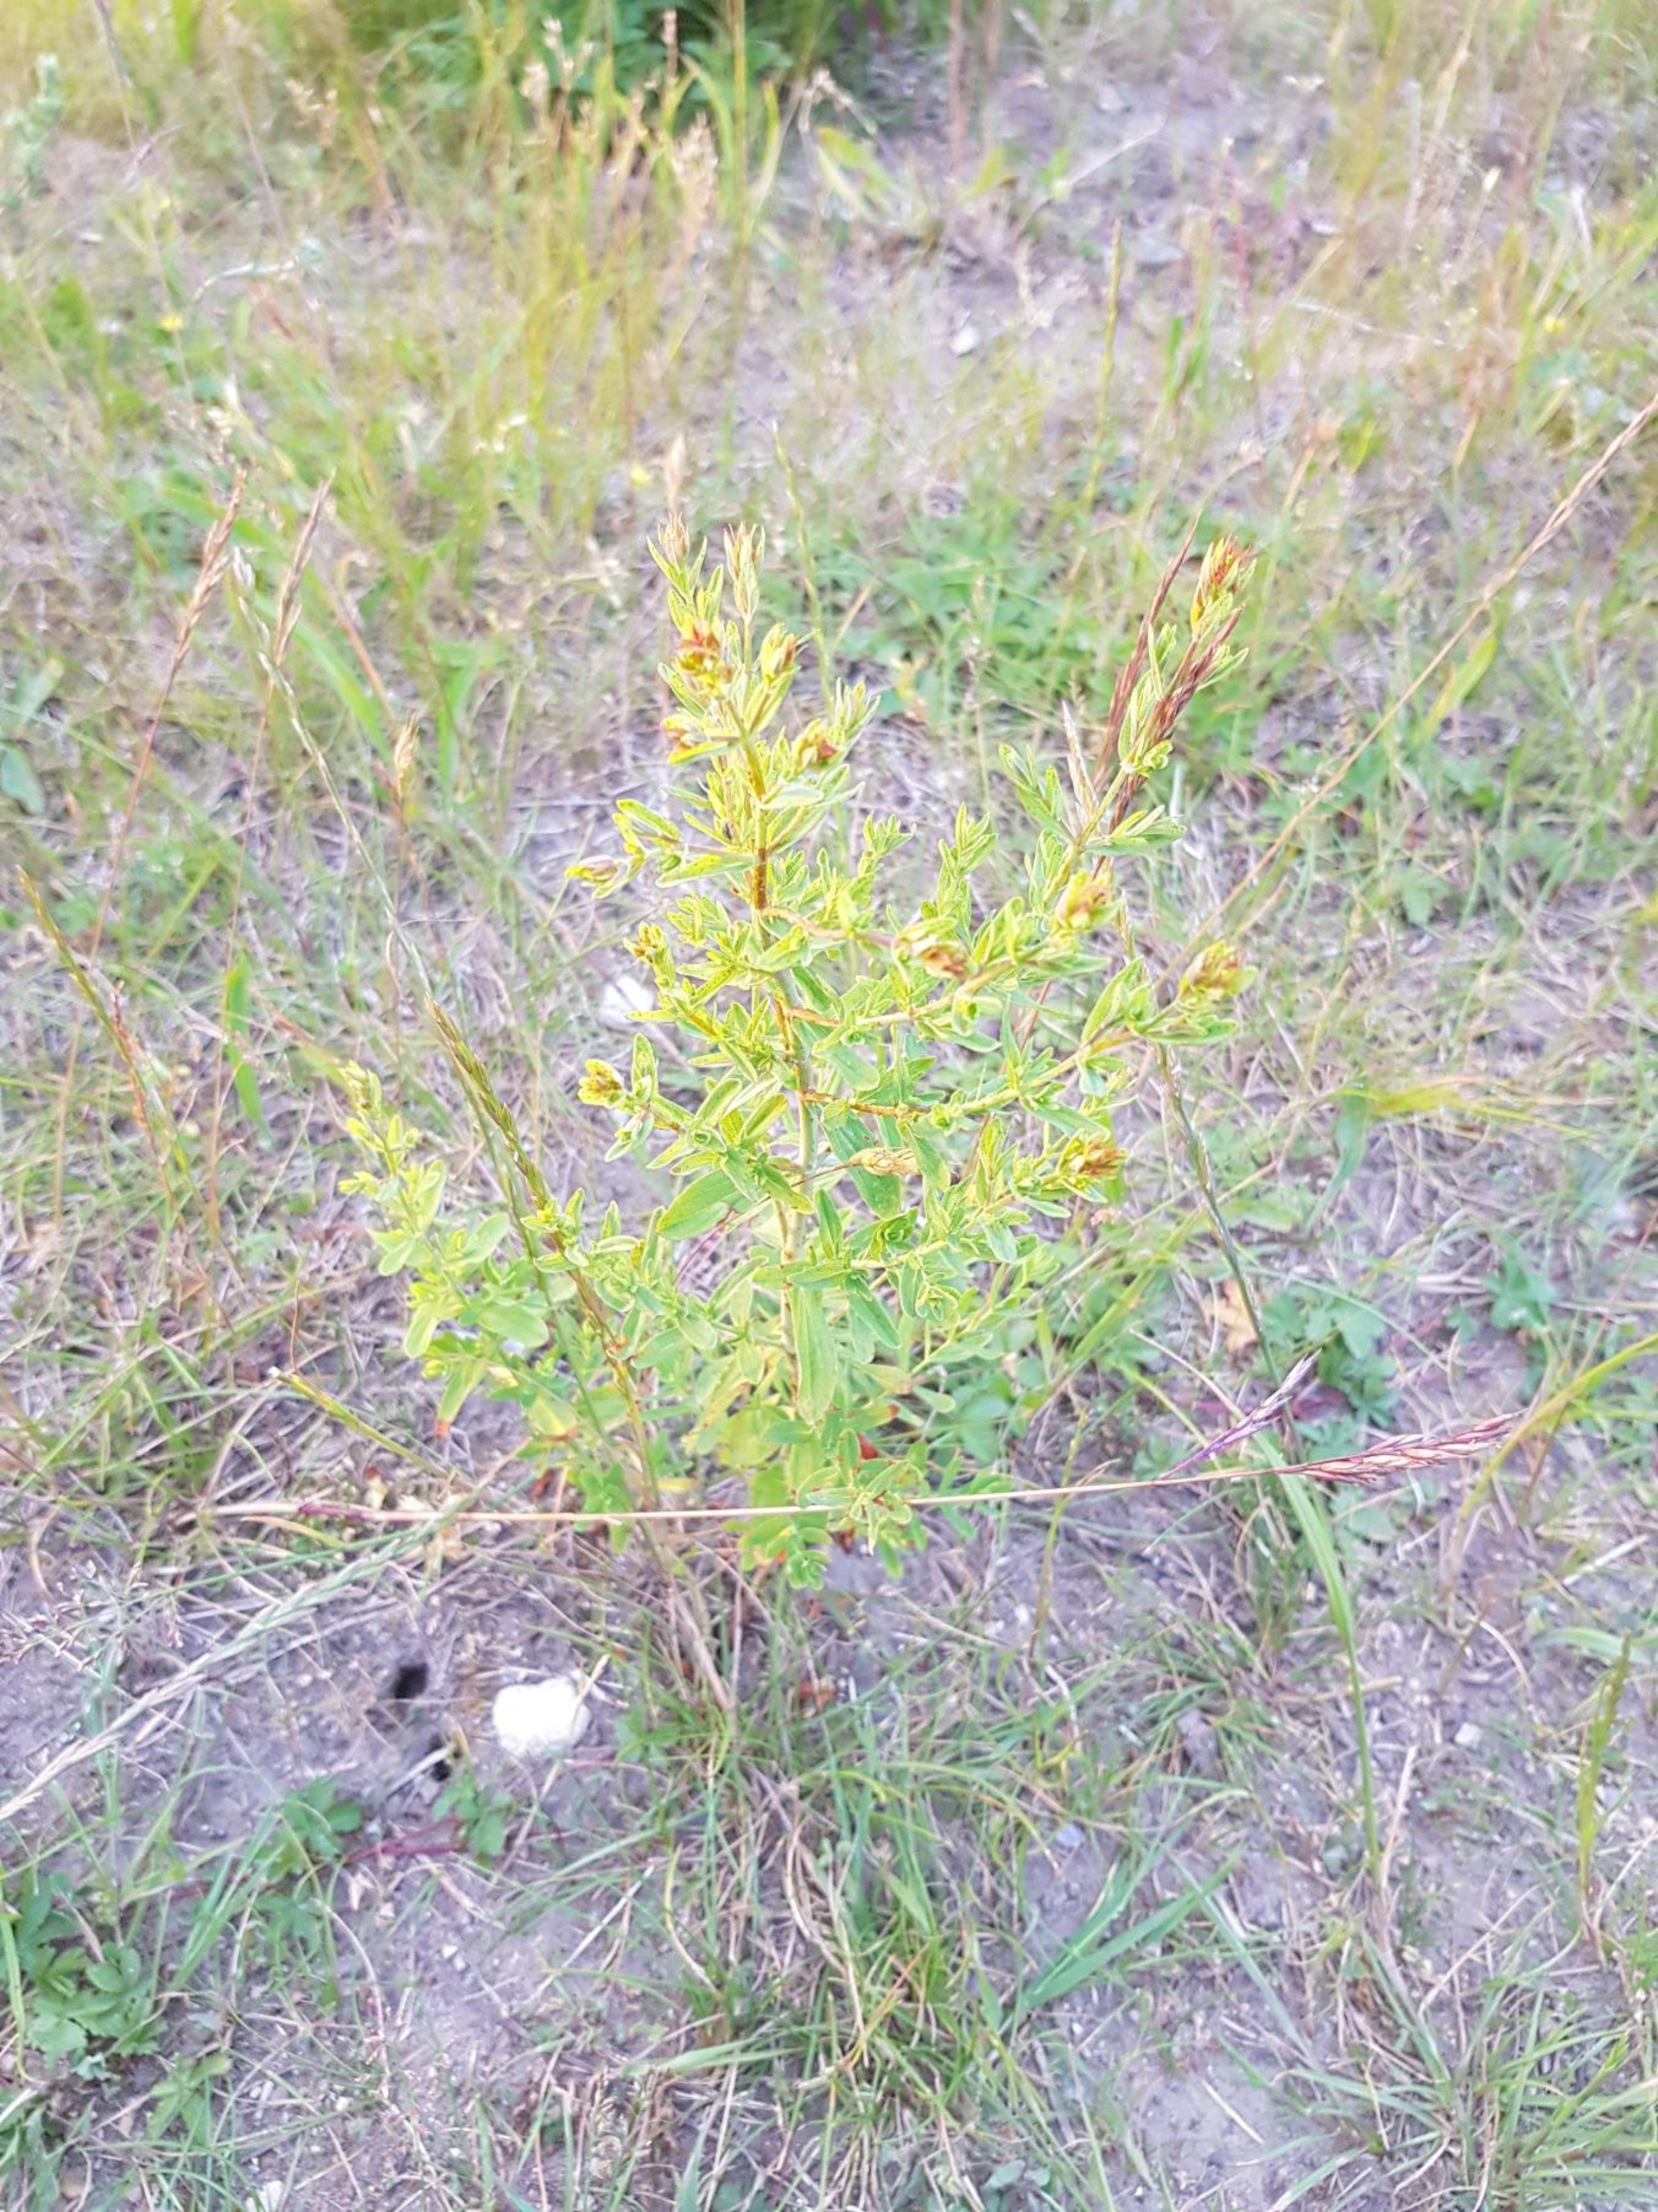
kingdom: Plantae
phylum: Tracheophyta
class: Magnoliopsida
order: Malpighiales
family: Hypericaceae
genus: Hypericum
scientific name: Hypericum perforatum
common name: Prikbladet perikon
